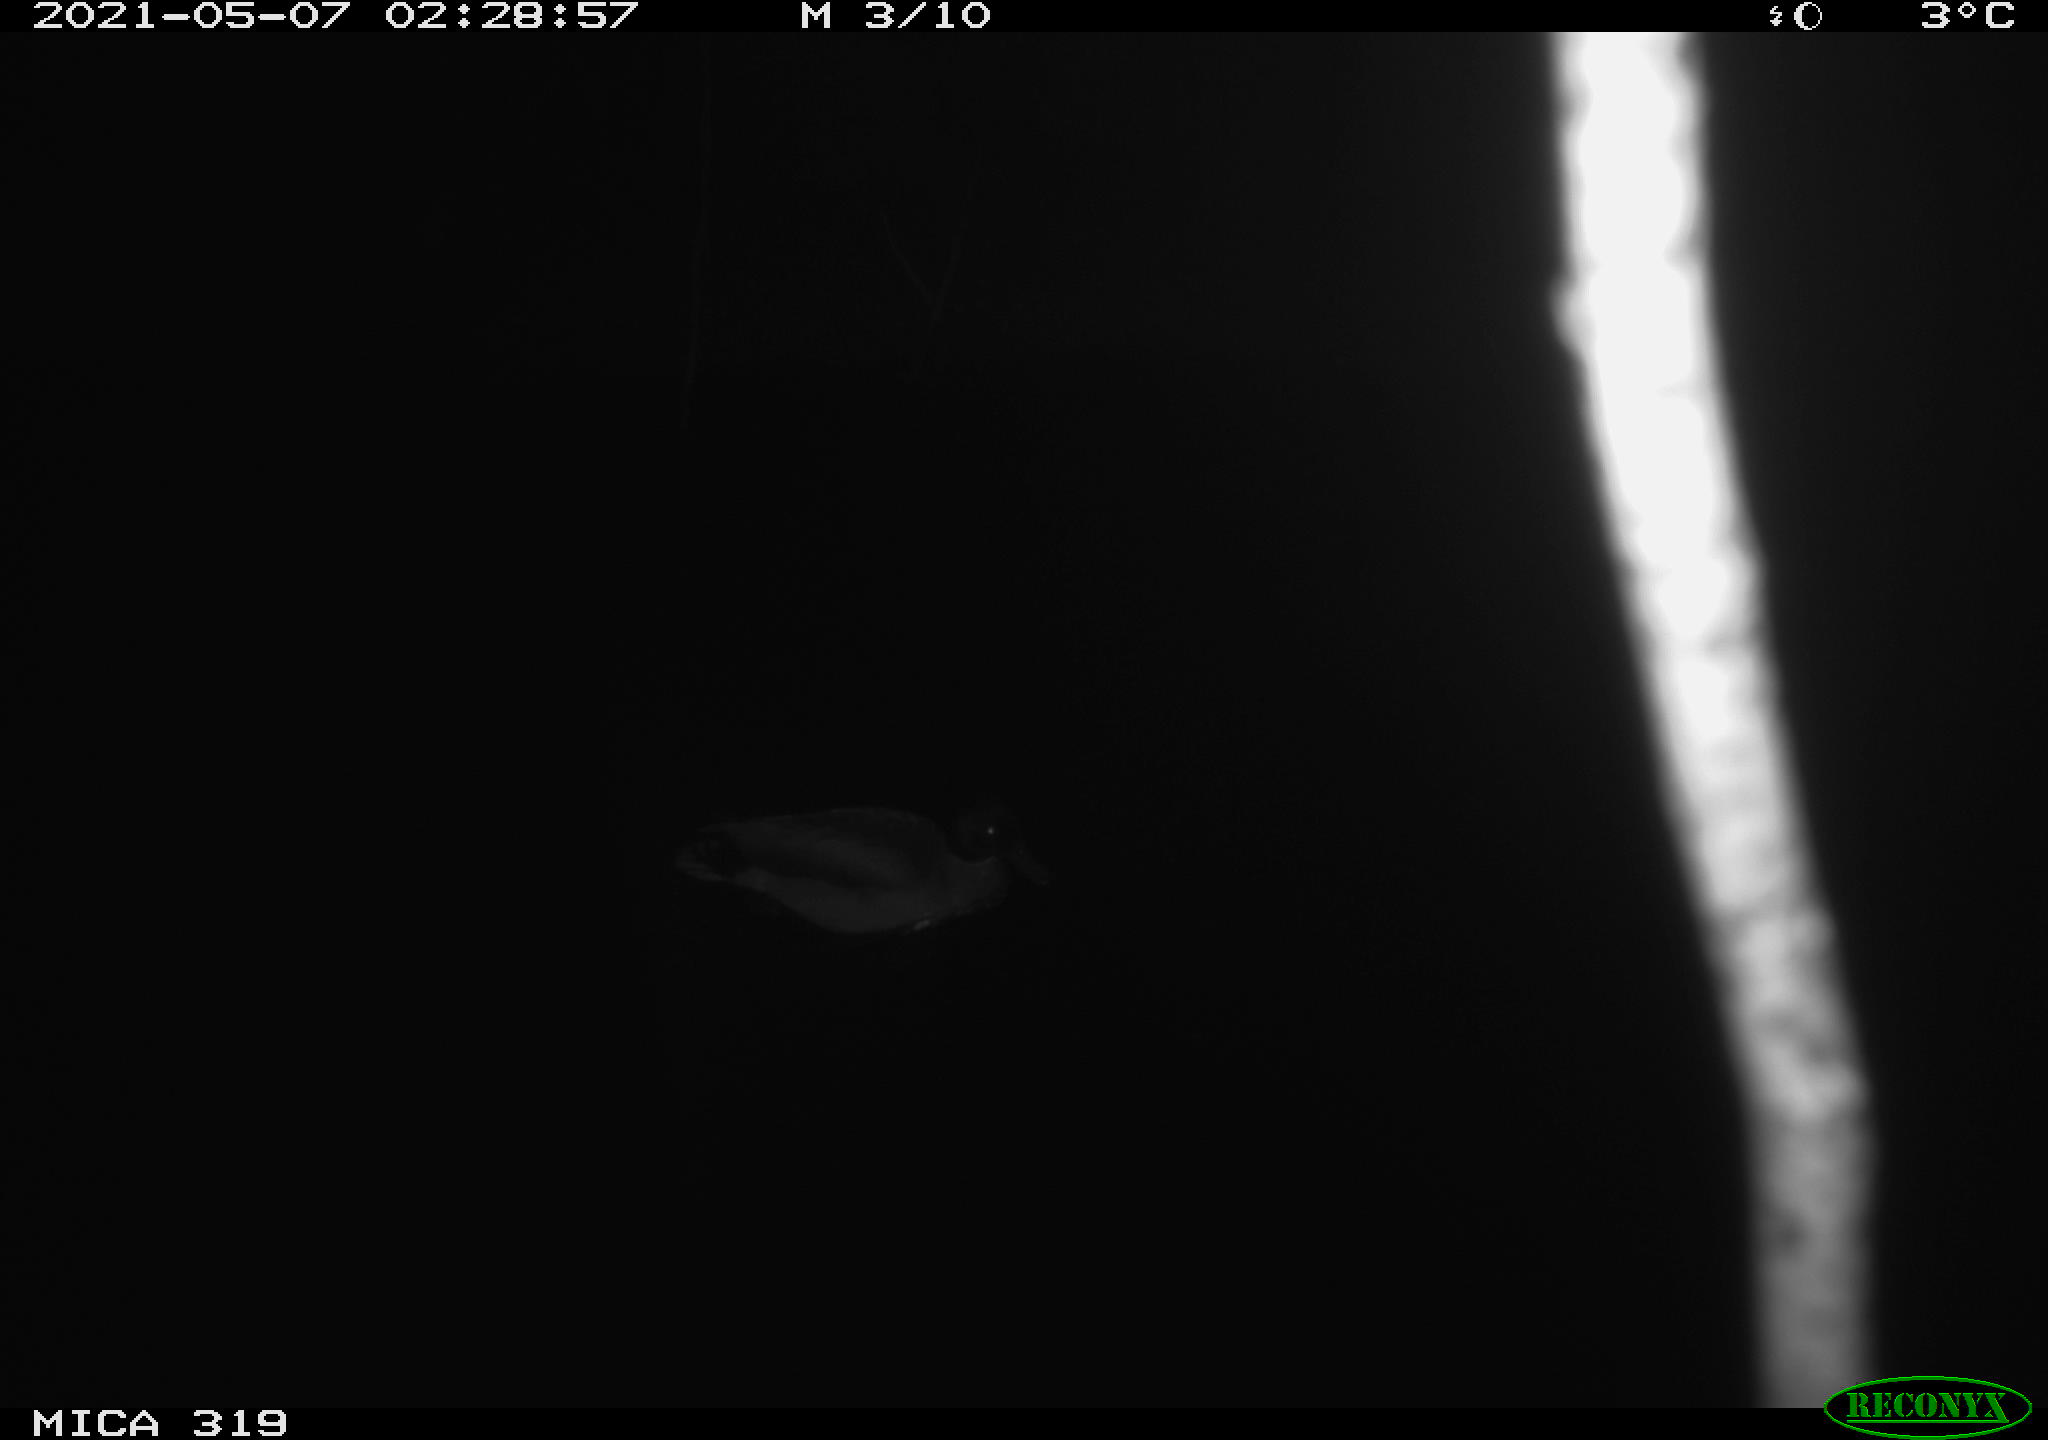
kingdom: Animalia
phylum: Chordata
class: Aves
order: Anseriformes
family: Anatidae
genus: Anas
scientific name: Anas platyrhynchos
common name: Mallard
